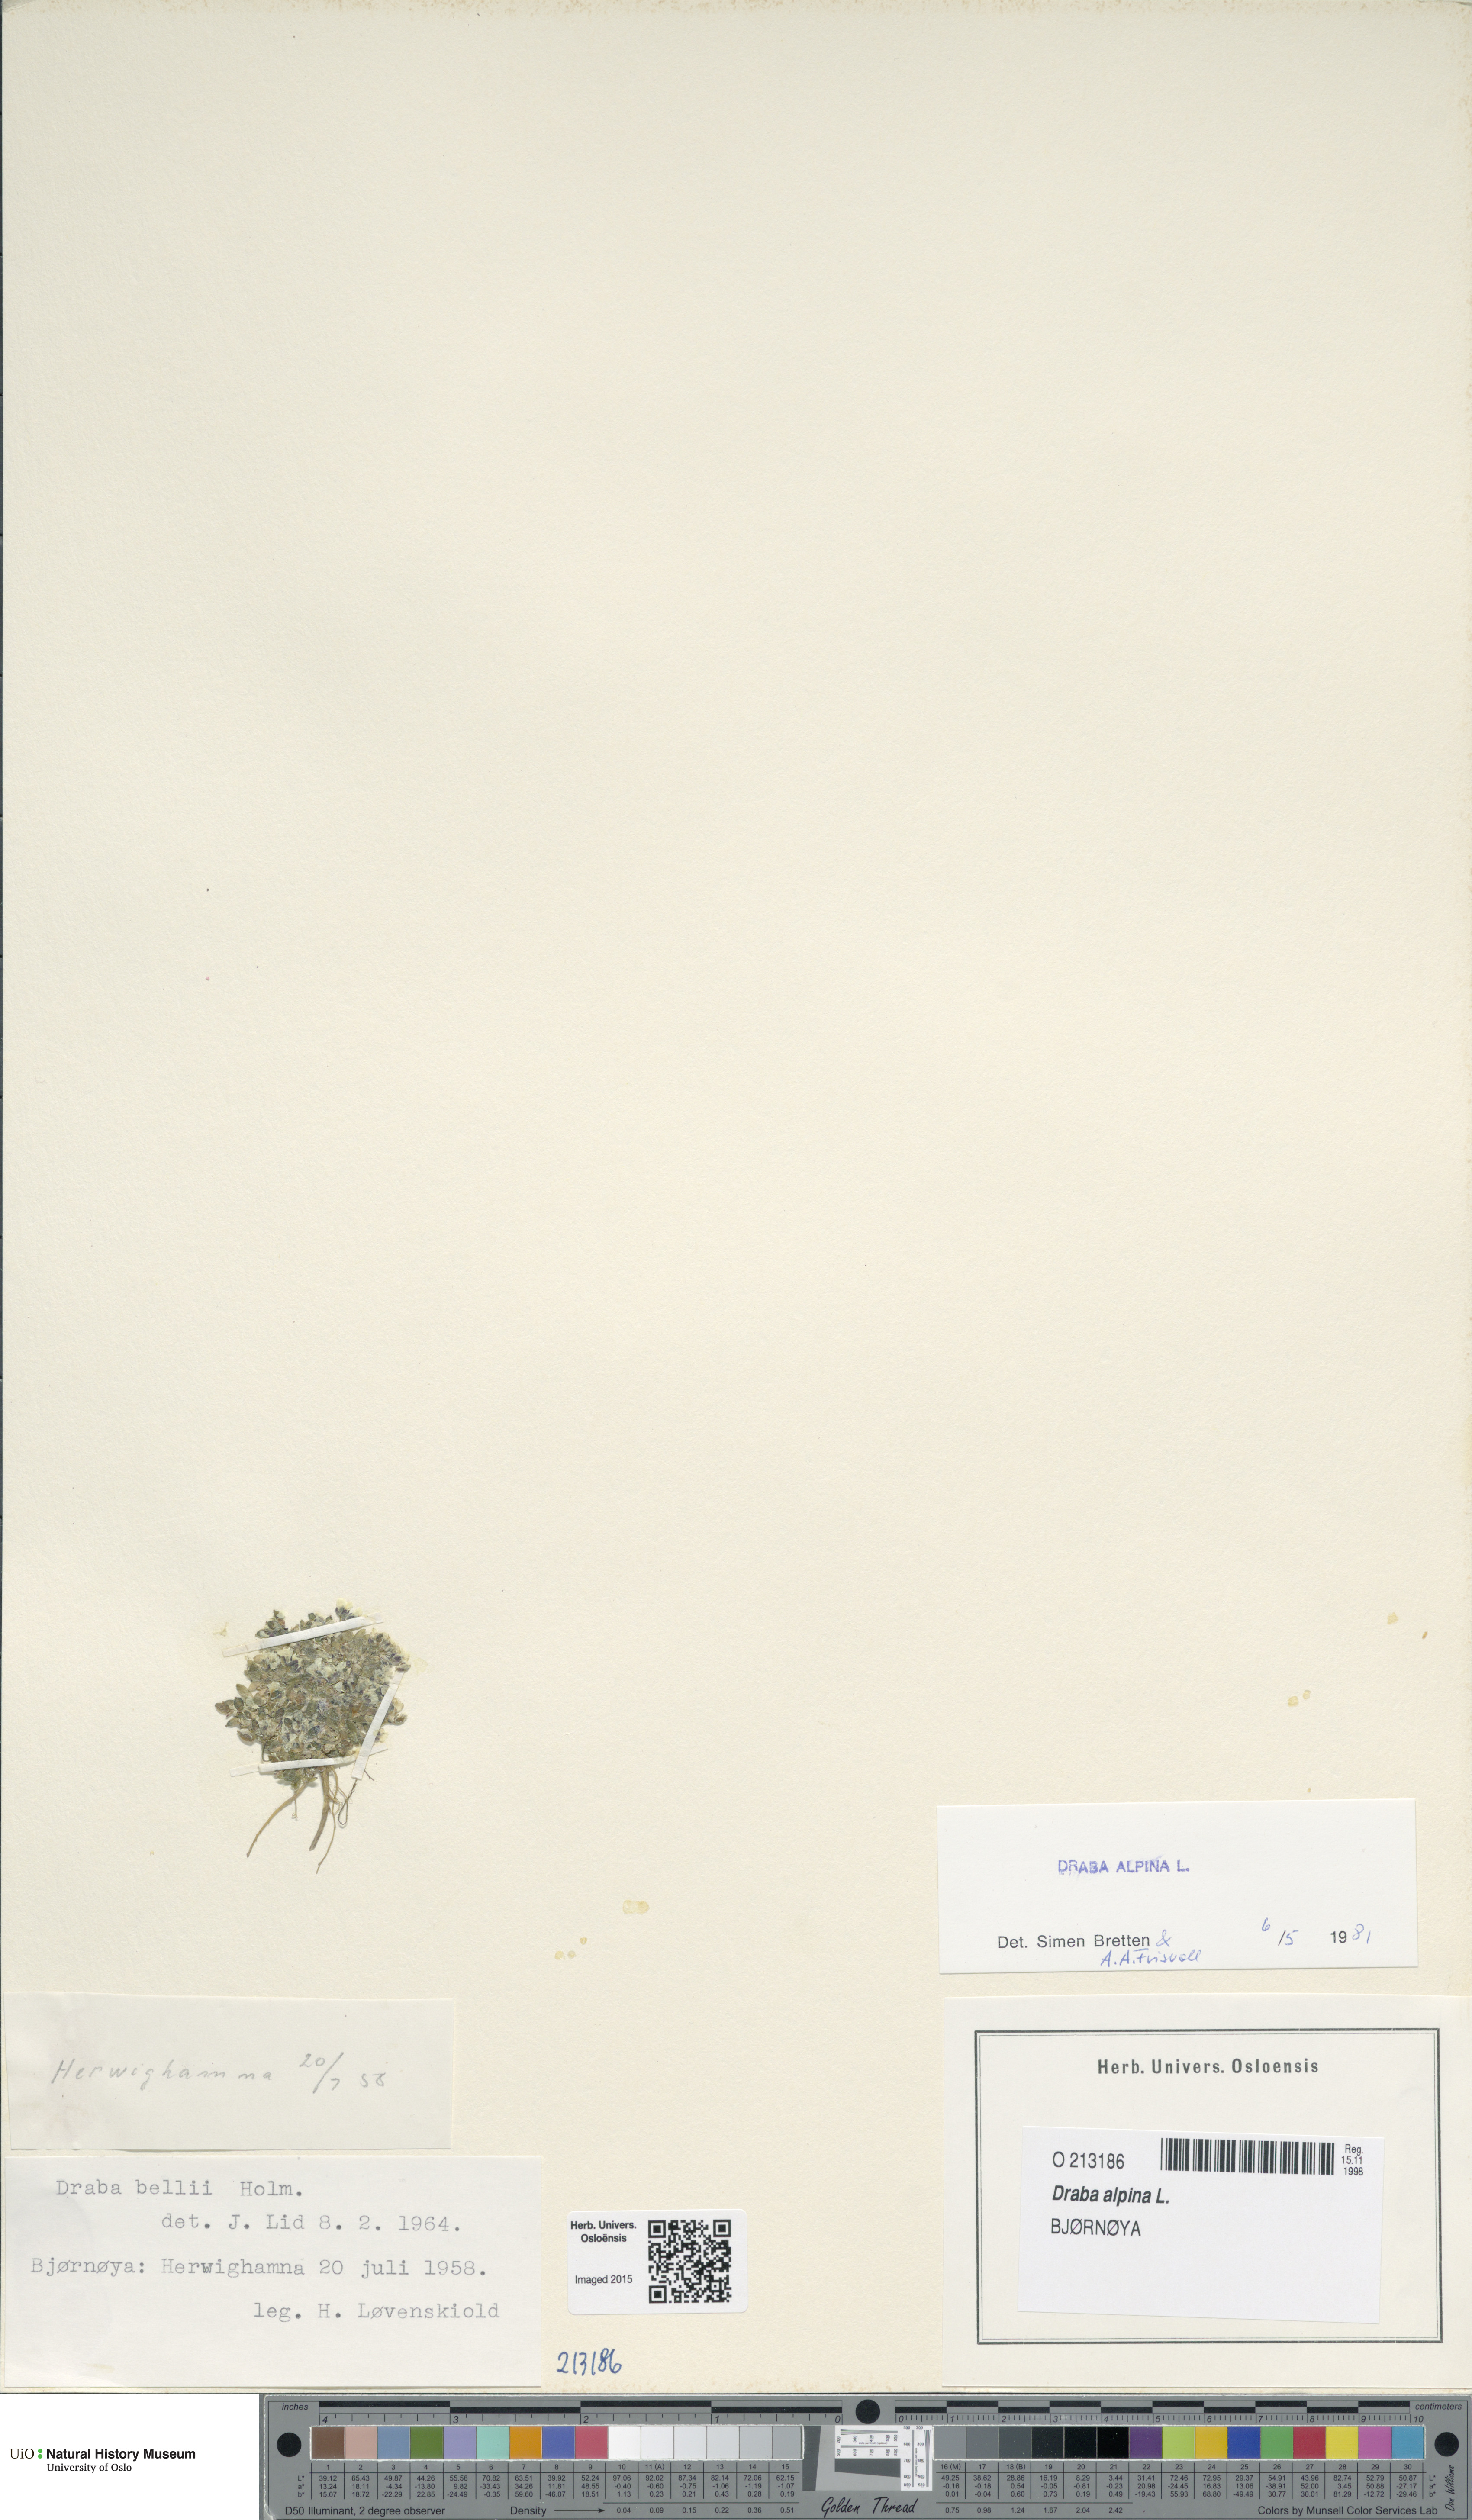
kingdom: Plantae
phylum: Tracheophyta
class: Magnoliopsida
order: Brassicales
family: Brassicaceae
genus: Draba
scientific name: Draba alpina
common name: Alpine draba
